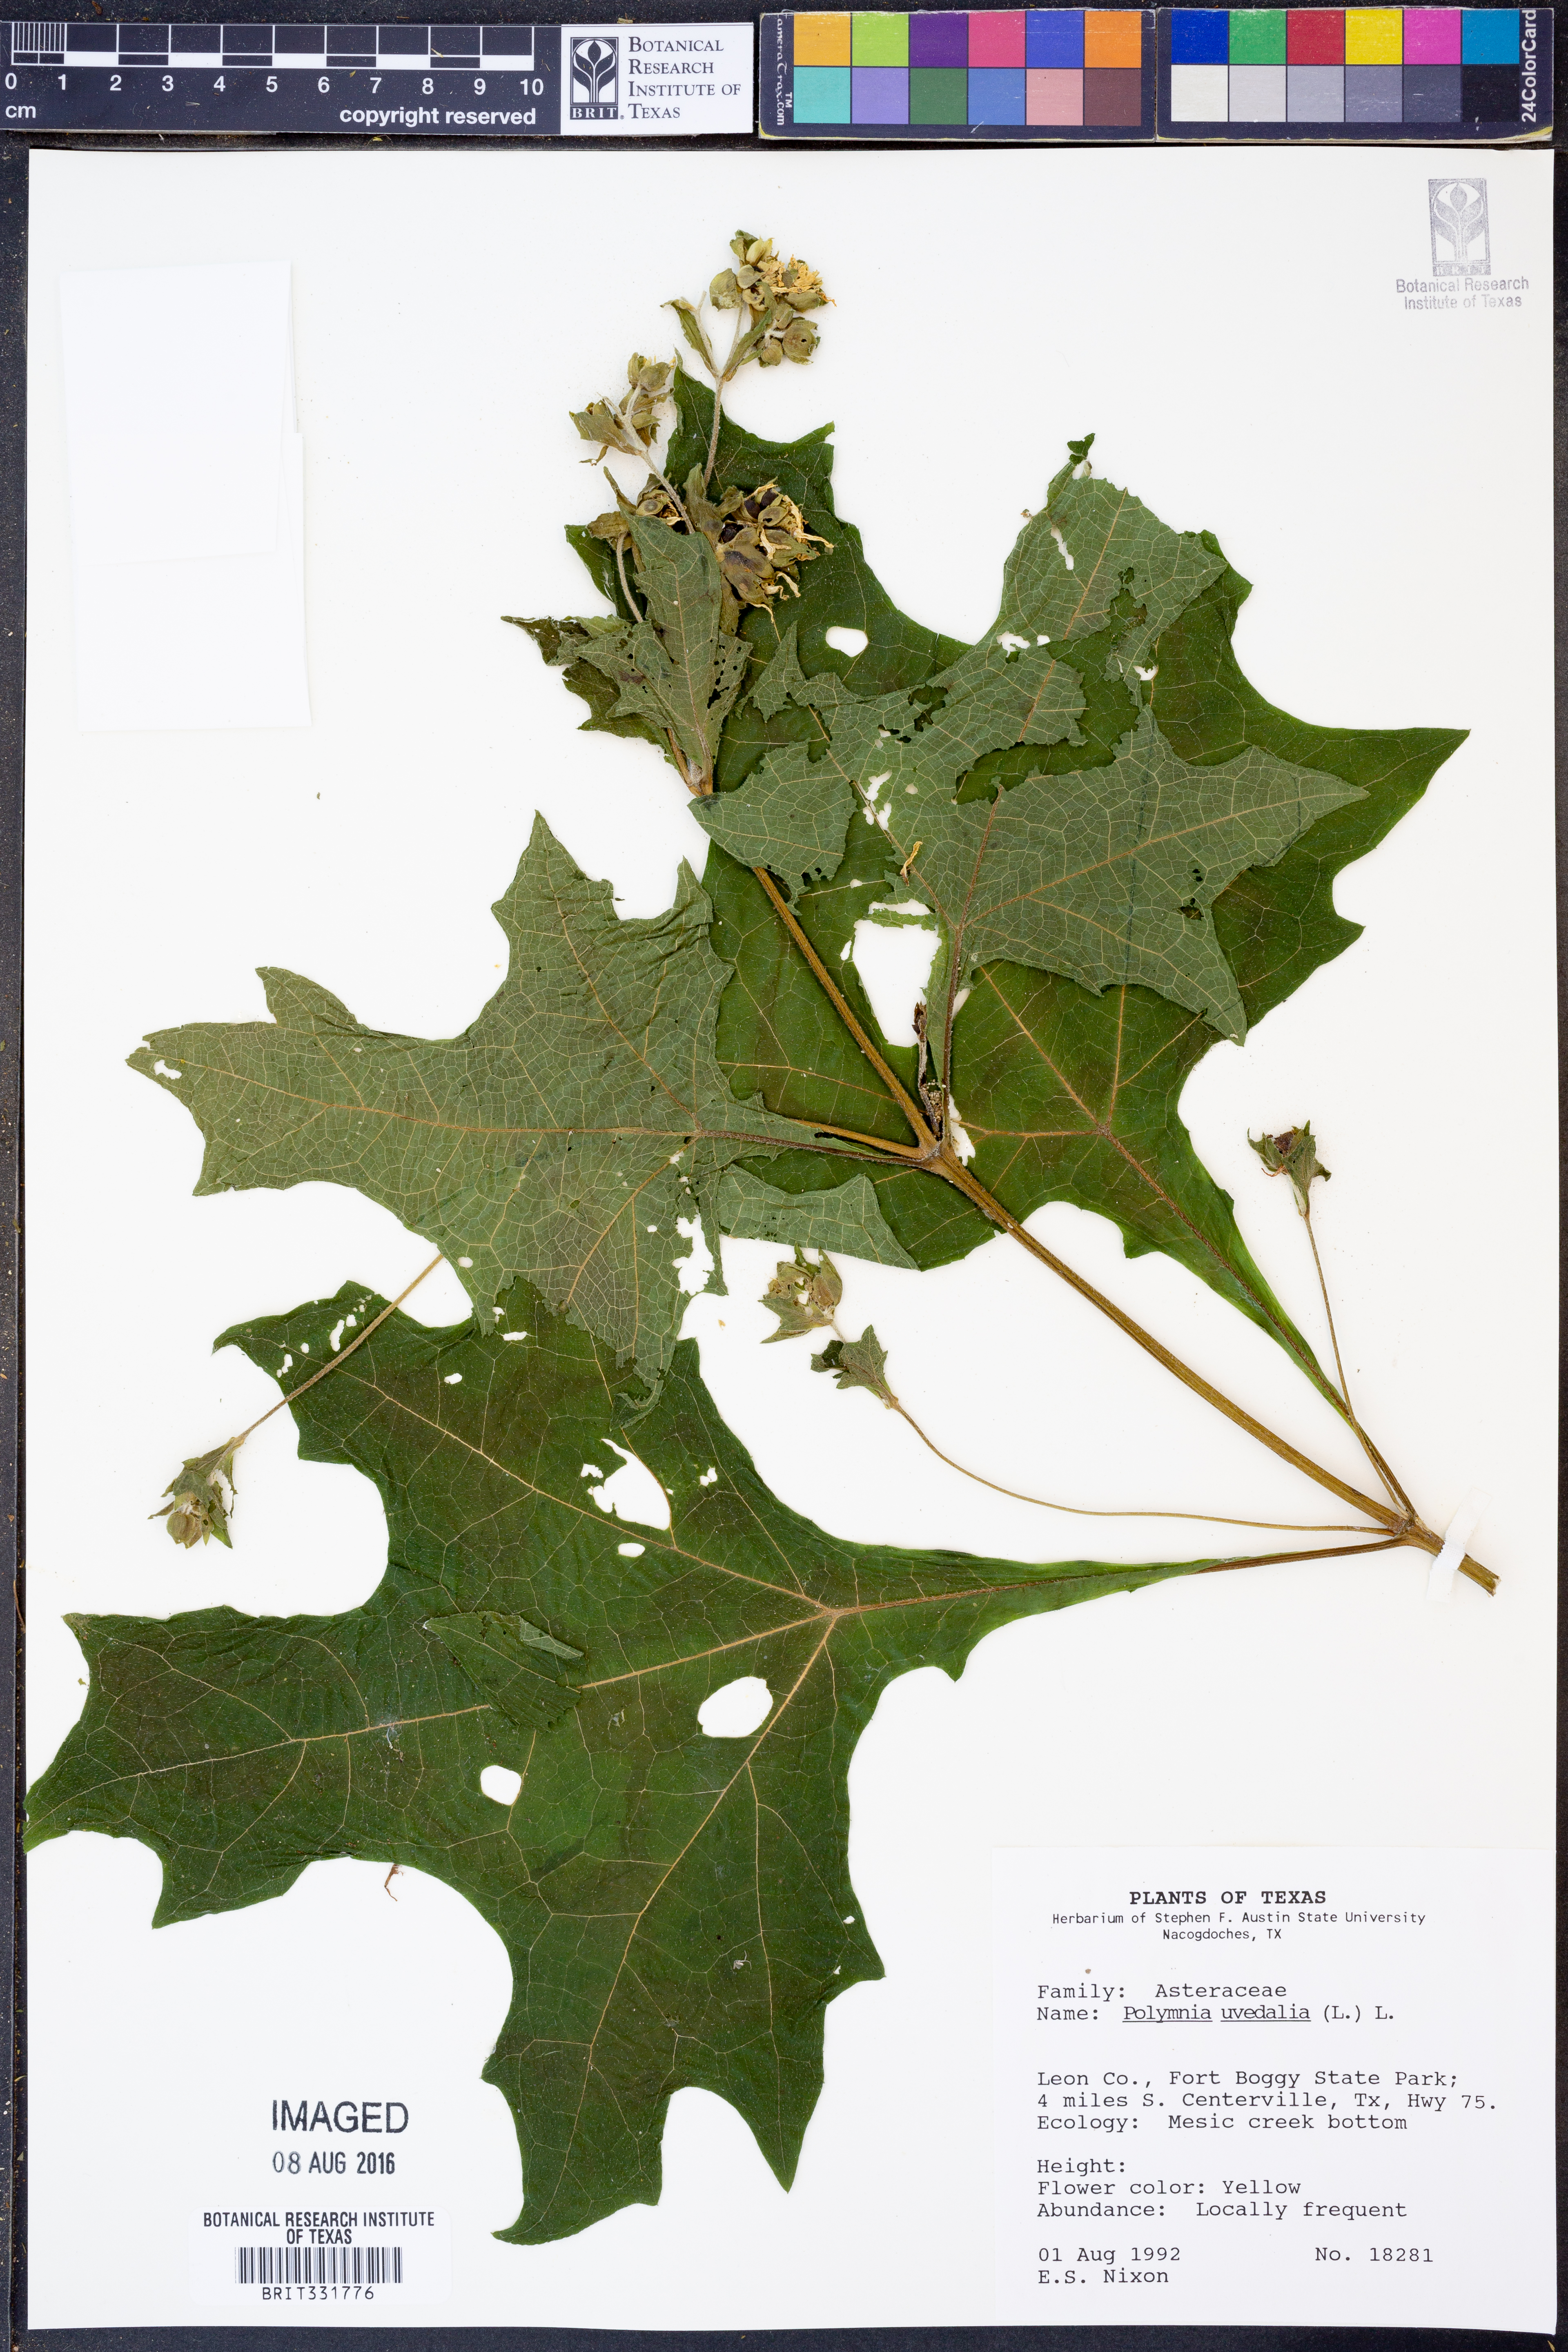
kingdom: Plantae
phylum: Tracheophyta
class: Magnoliopsida
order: Asterales
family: Asteraceae
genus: Smallanthus
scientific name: Smallanthus uvedalia
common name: Bear's-foot
